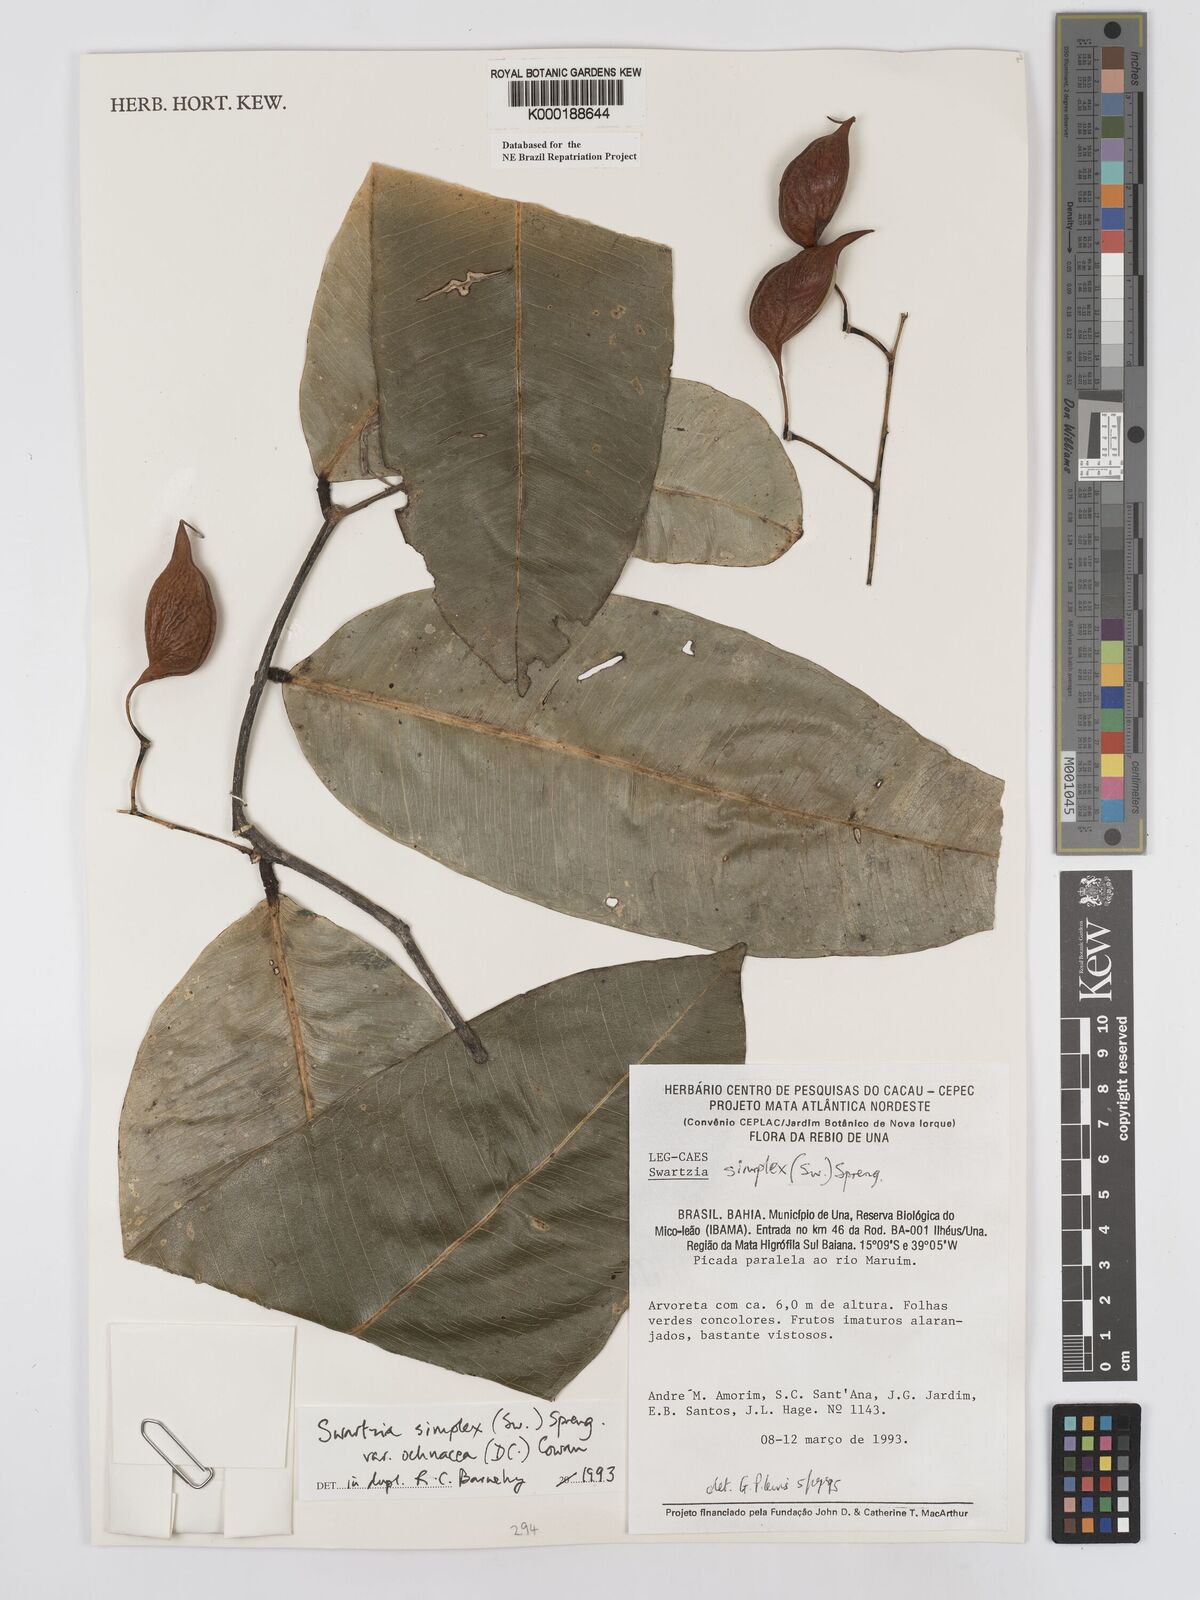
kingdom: Plantae
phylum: Tracheophyta
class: Magnoliopsida
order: Fabales
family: Fabaceae
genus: Swartzia
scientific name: Swartzia simplex
